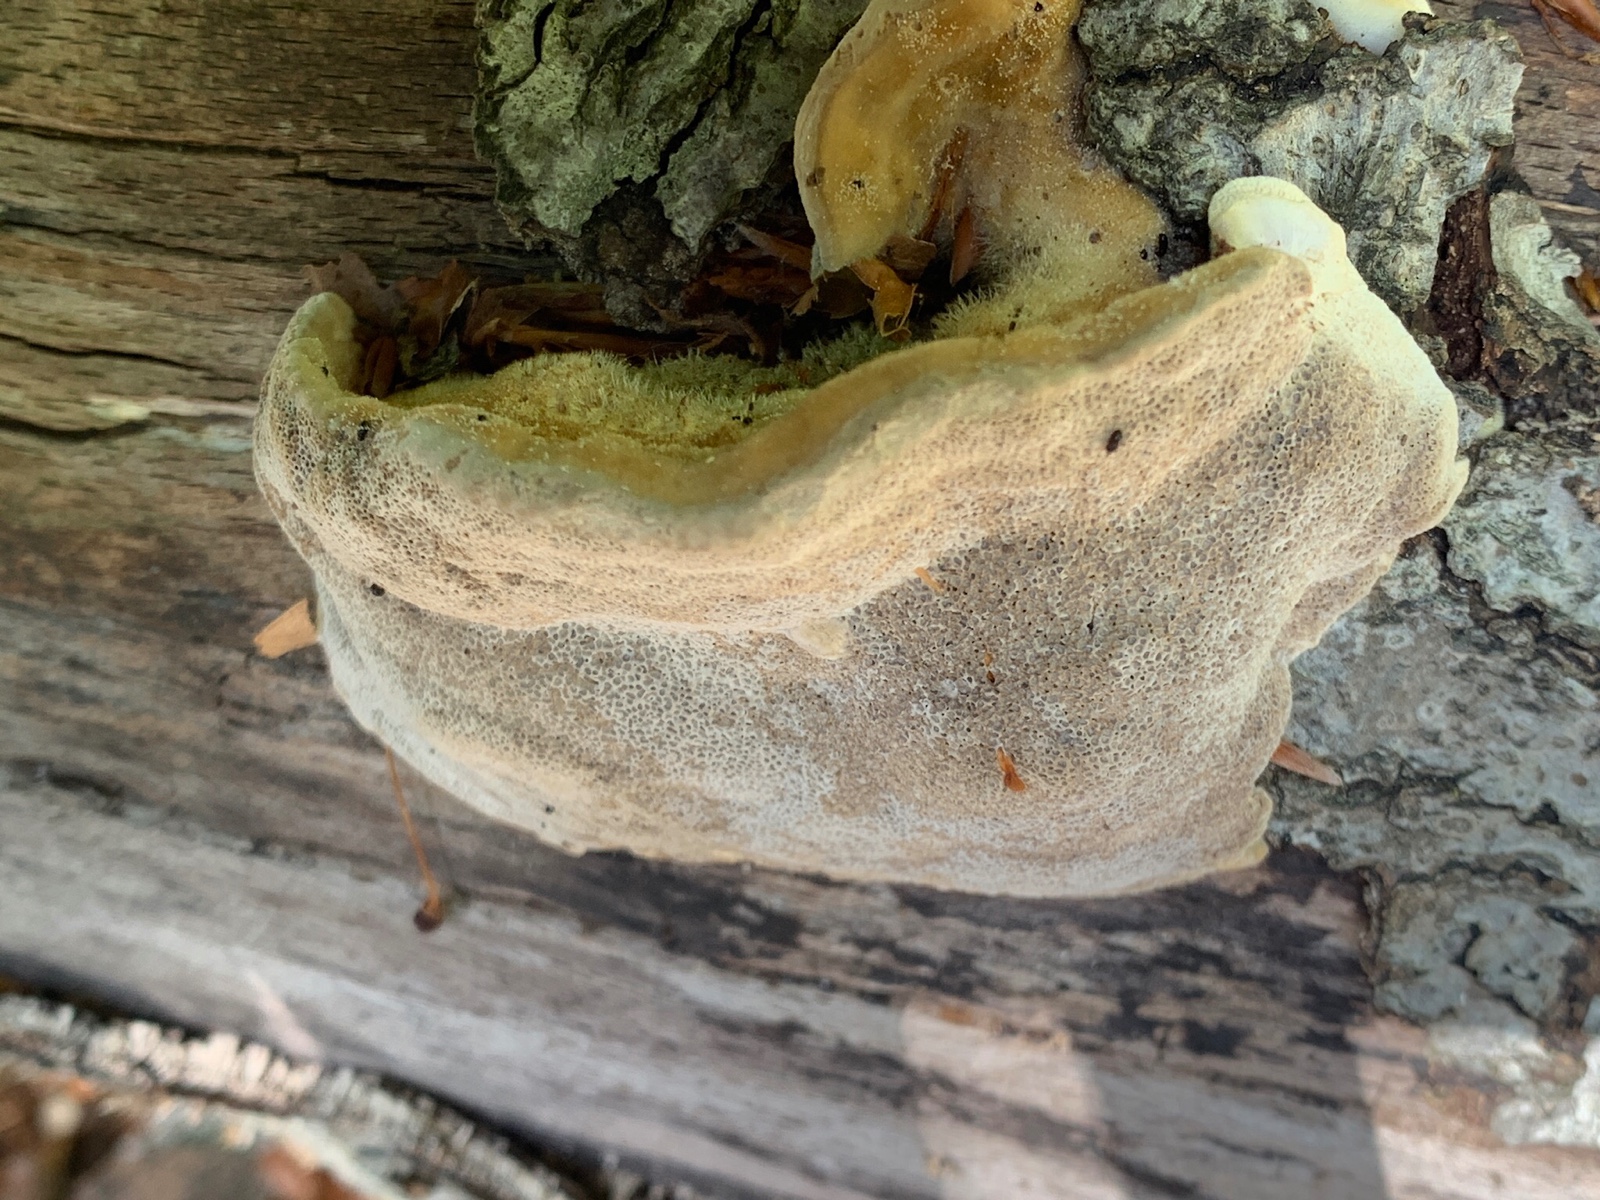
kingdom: Fungi
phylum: Basidiomycota
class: Agaricomycetes
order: Polyporales
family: Polyporaceae
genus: Trametes
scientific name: Trametes hirsuta
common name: håret læderporesvamp
